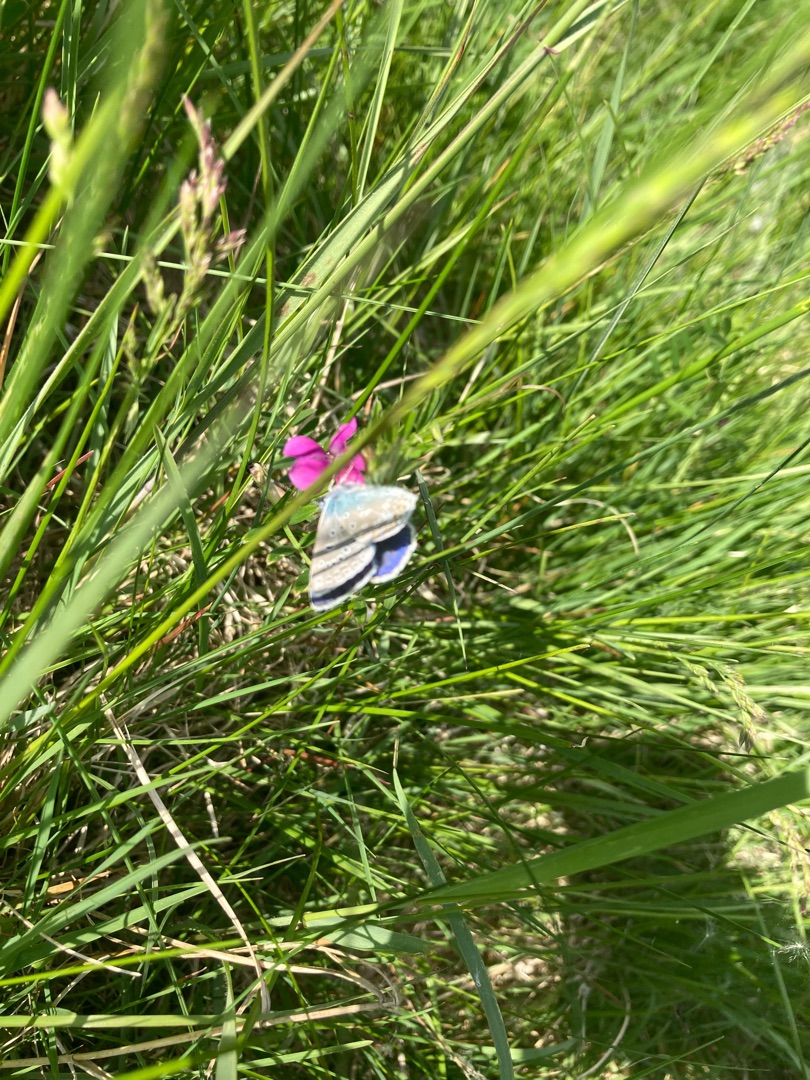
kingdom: Animalia
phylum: Arthropoda
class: Insecta
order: Lepidoptera
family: Lycaenidae
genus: Polyommatus
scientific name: Polyommatus icarus
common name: Almindelig blåfugl
